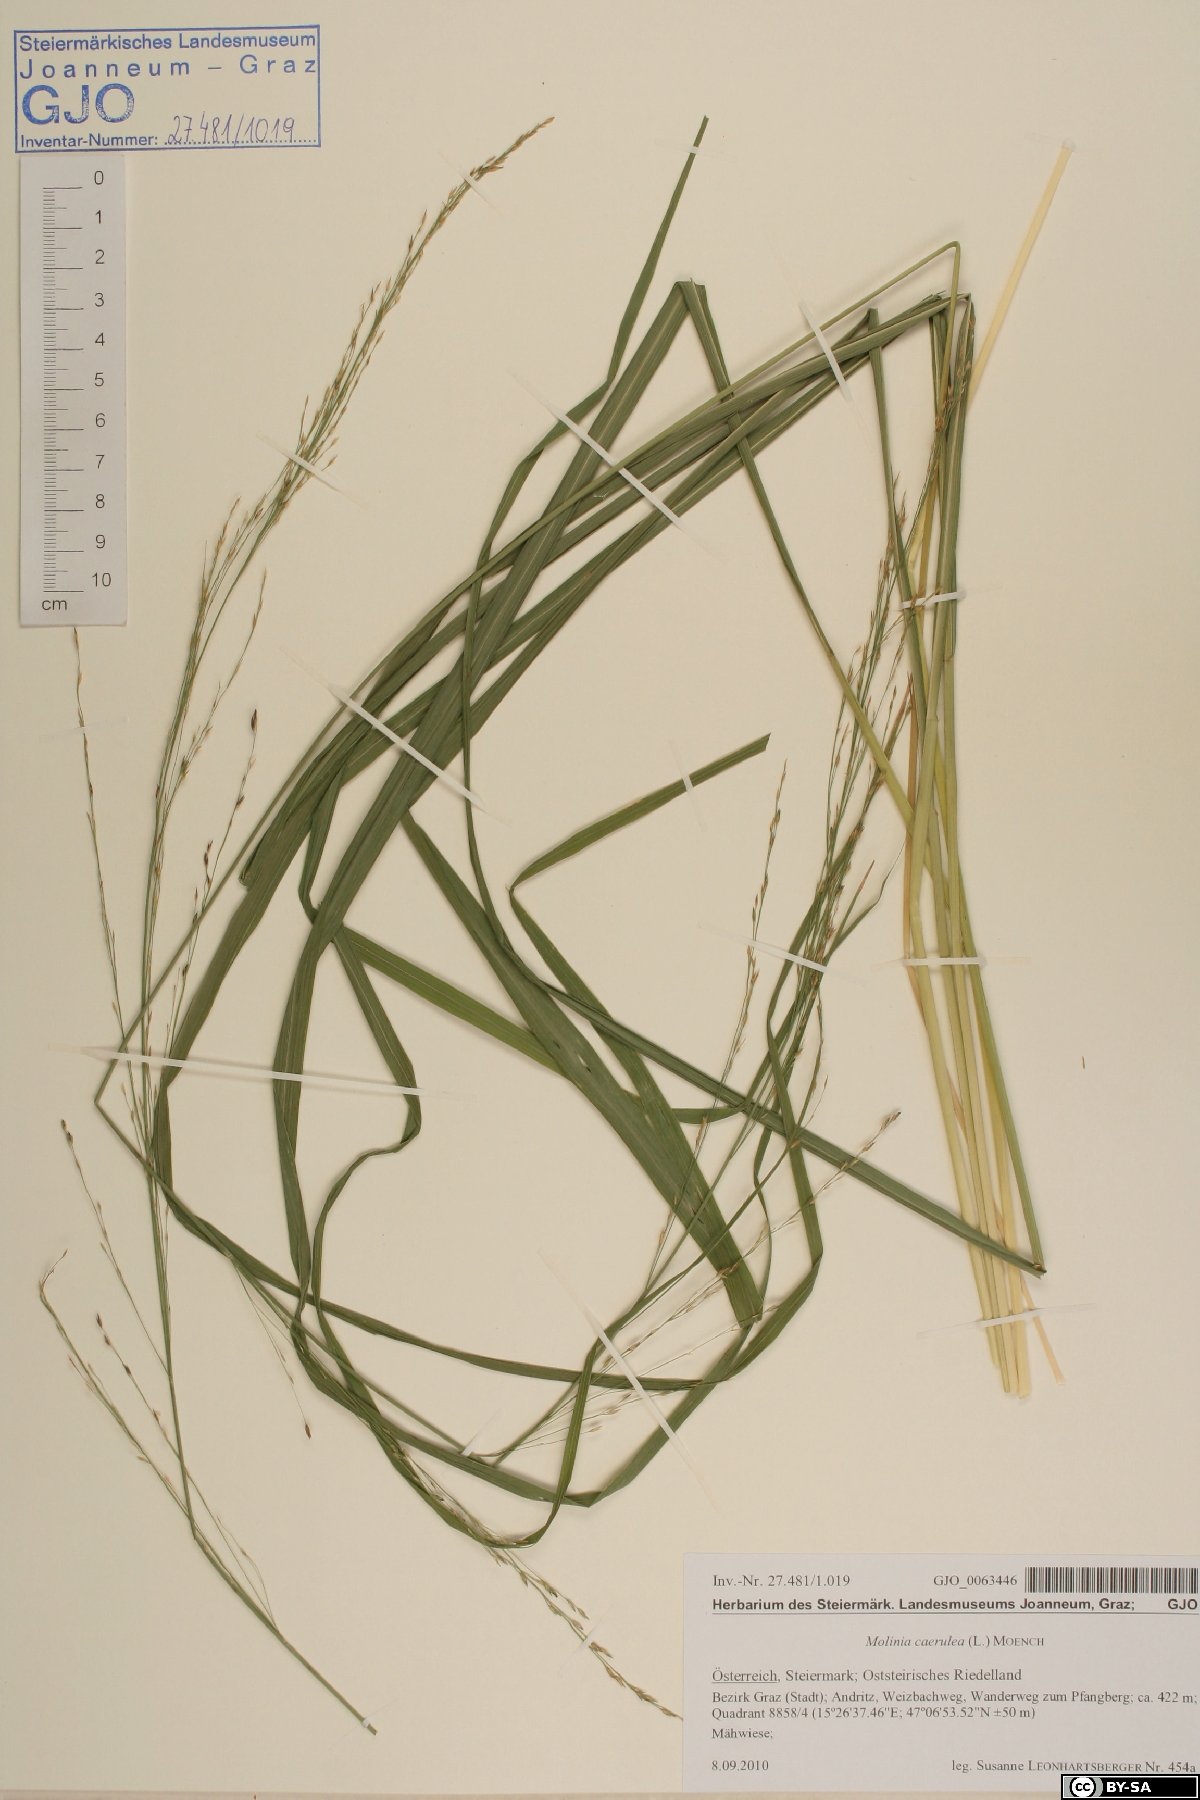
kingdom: Plantae
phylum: Tracheophyta
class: Liliopsida
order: Poales
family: Poaceae
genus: Molinia
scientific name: Molinia caerulea
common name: Purple moor-grass
